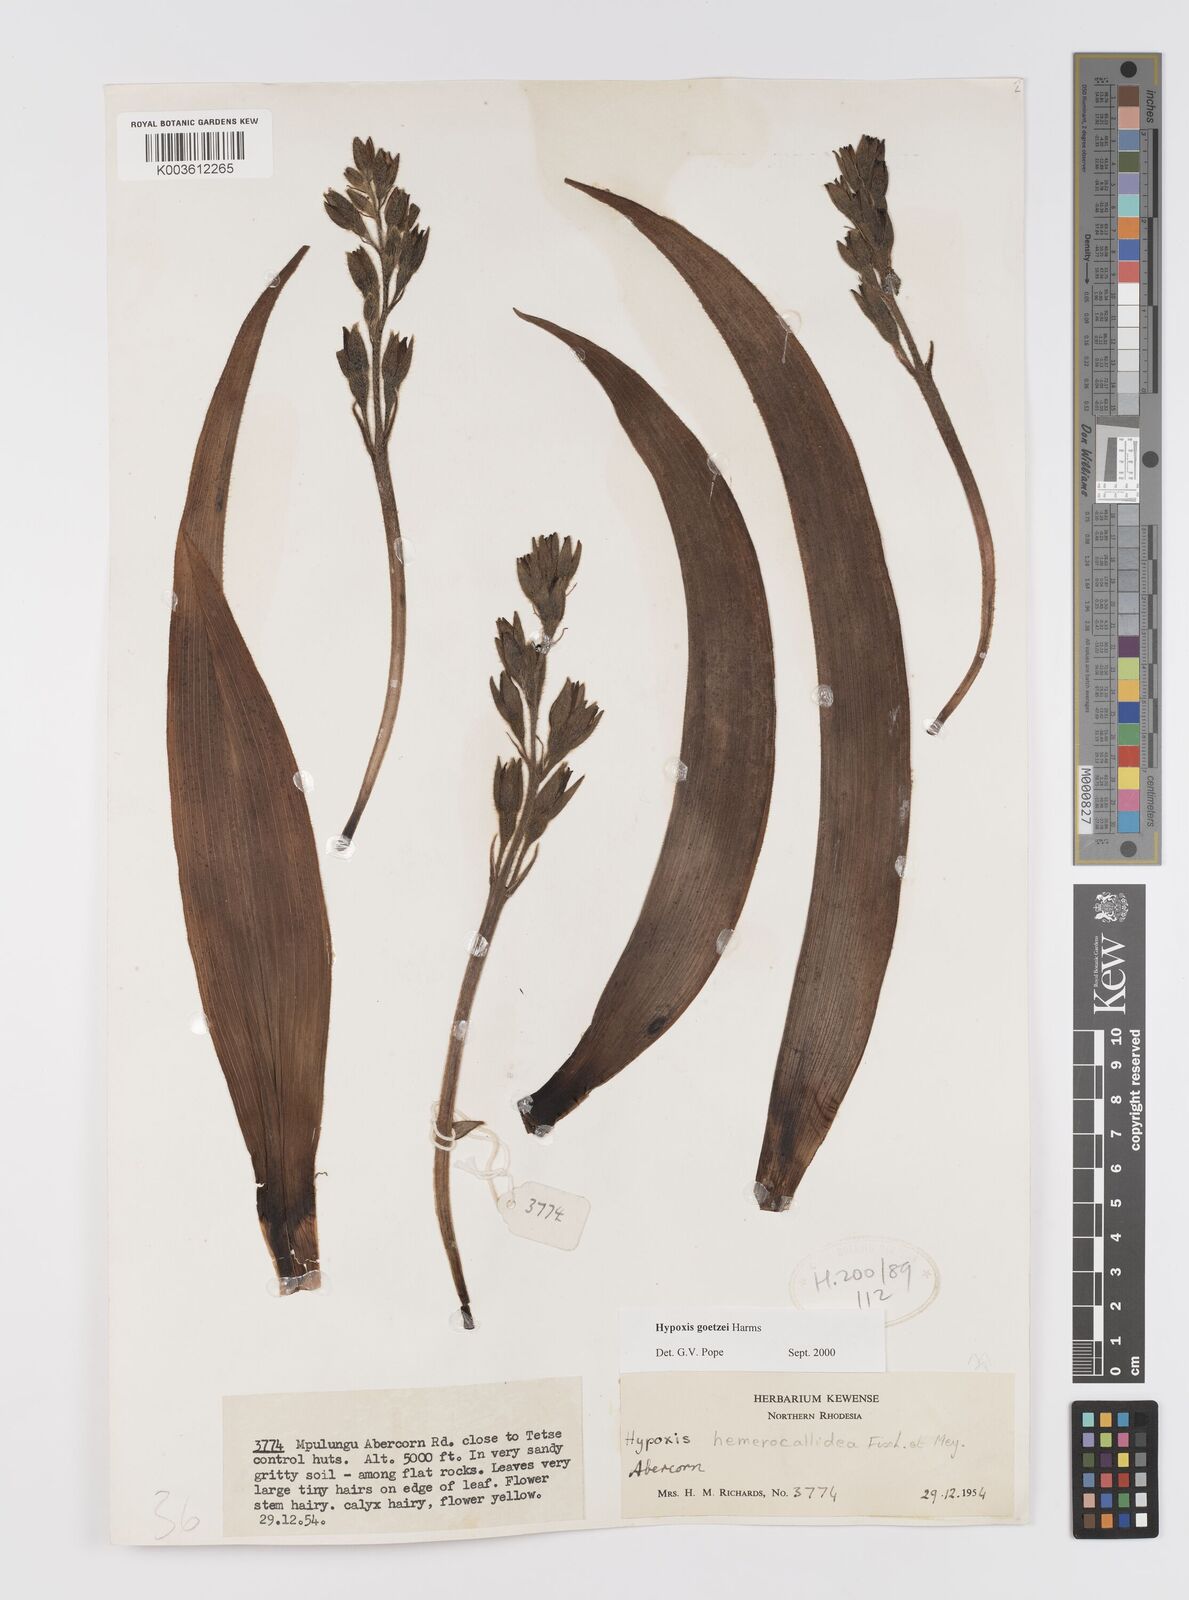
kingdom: Plantae
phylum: Tracheophyta
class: Liliopsida
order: Asparagales
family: Hypoxidaceae
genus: Hypoxis
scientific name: Hypoxis goetzei
